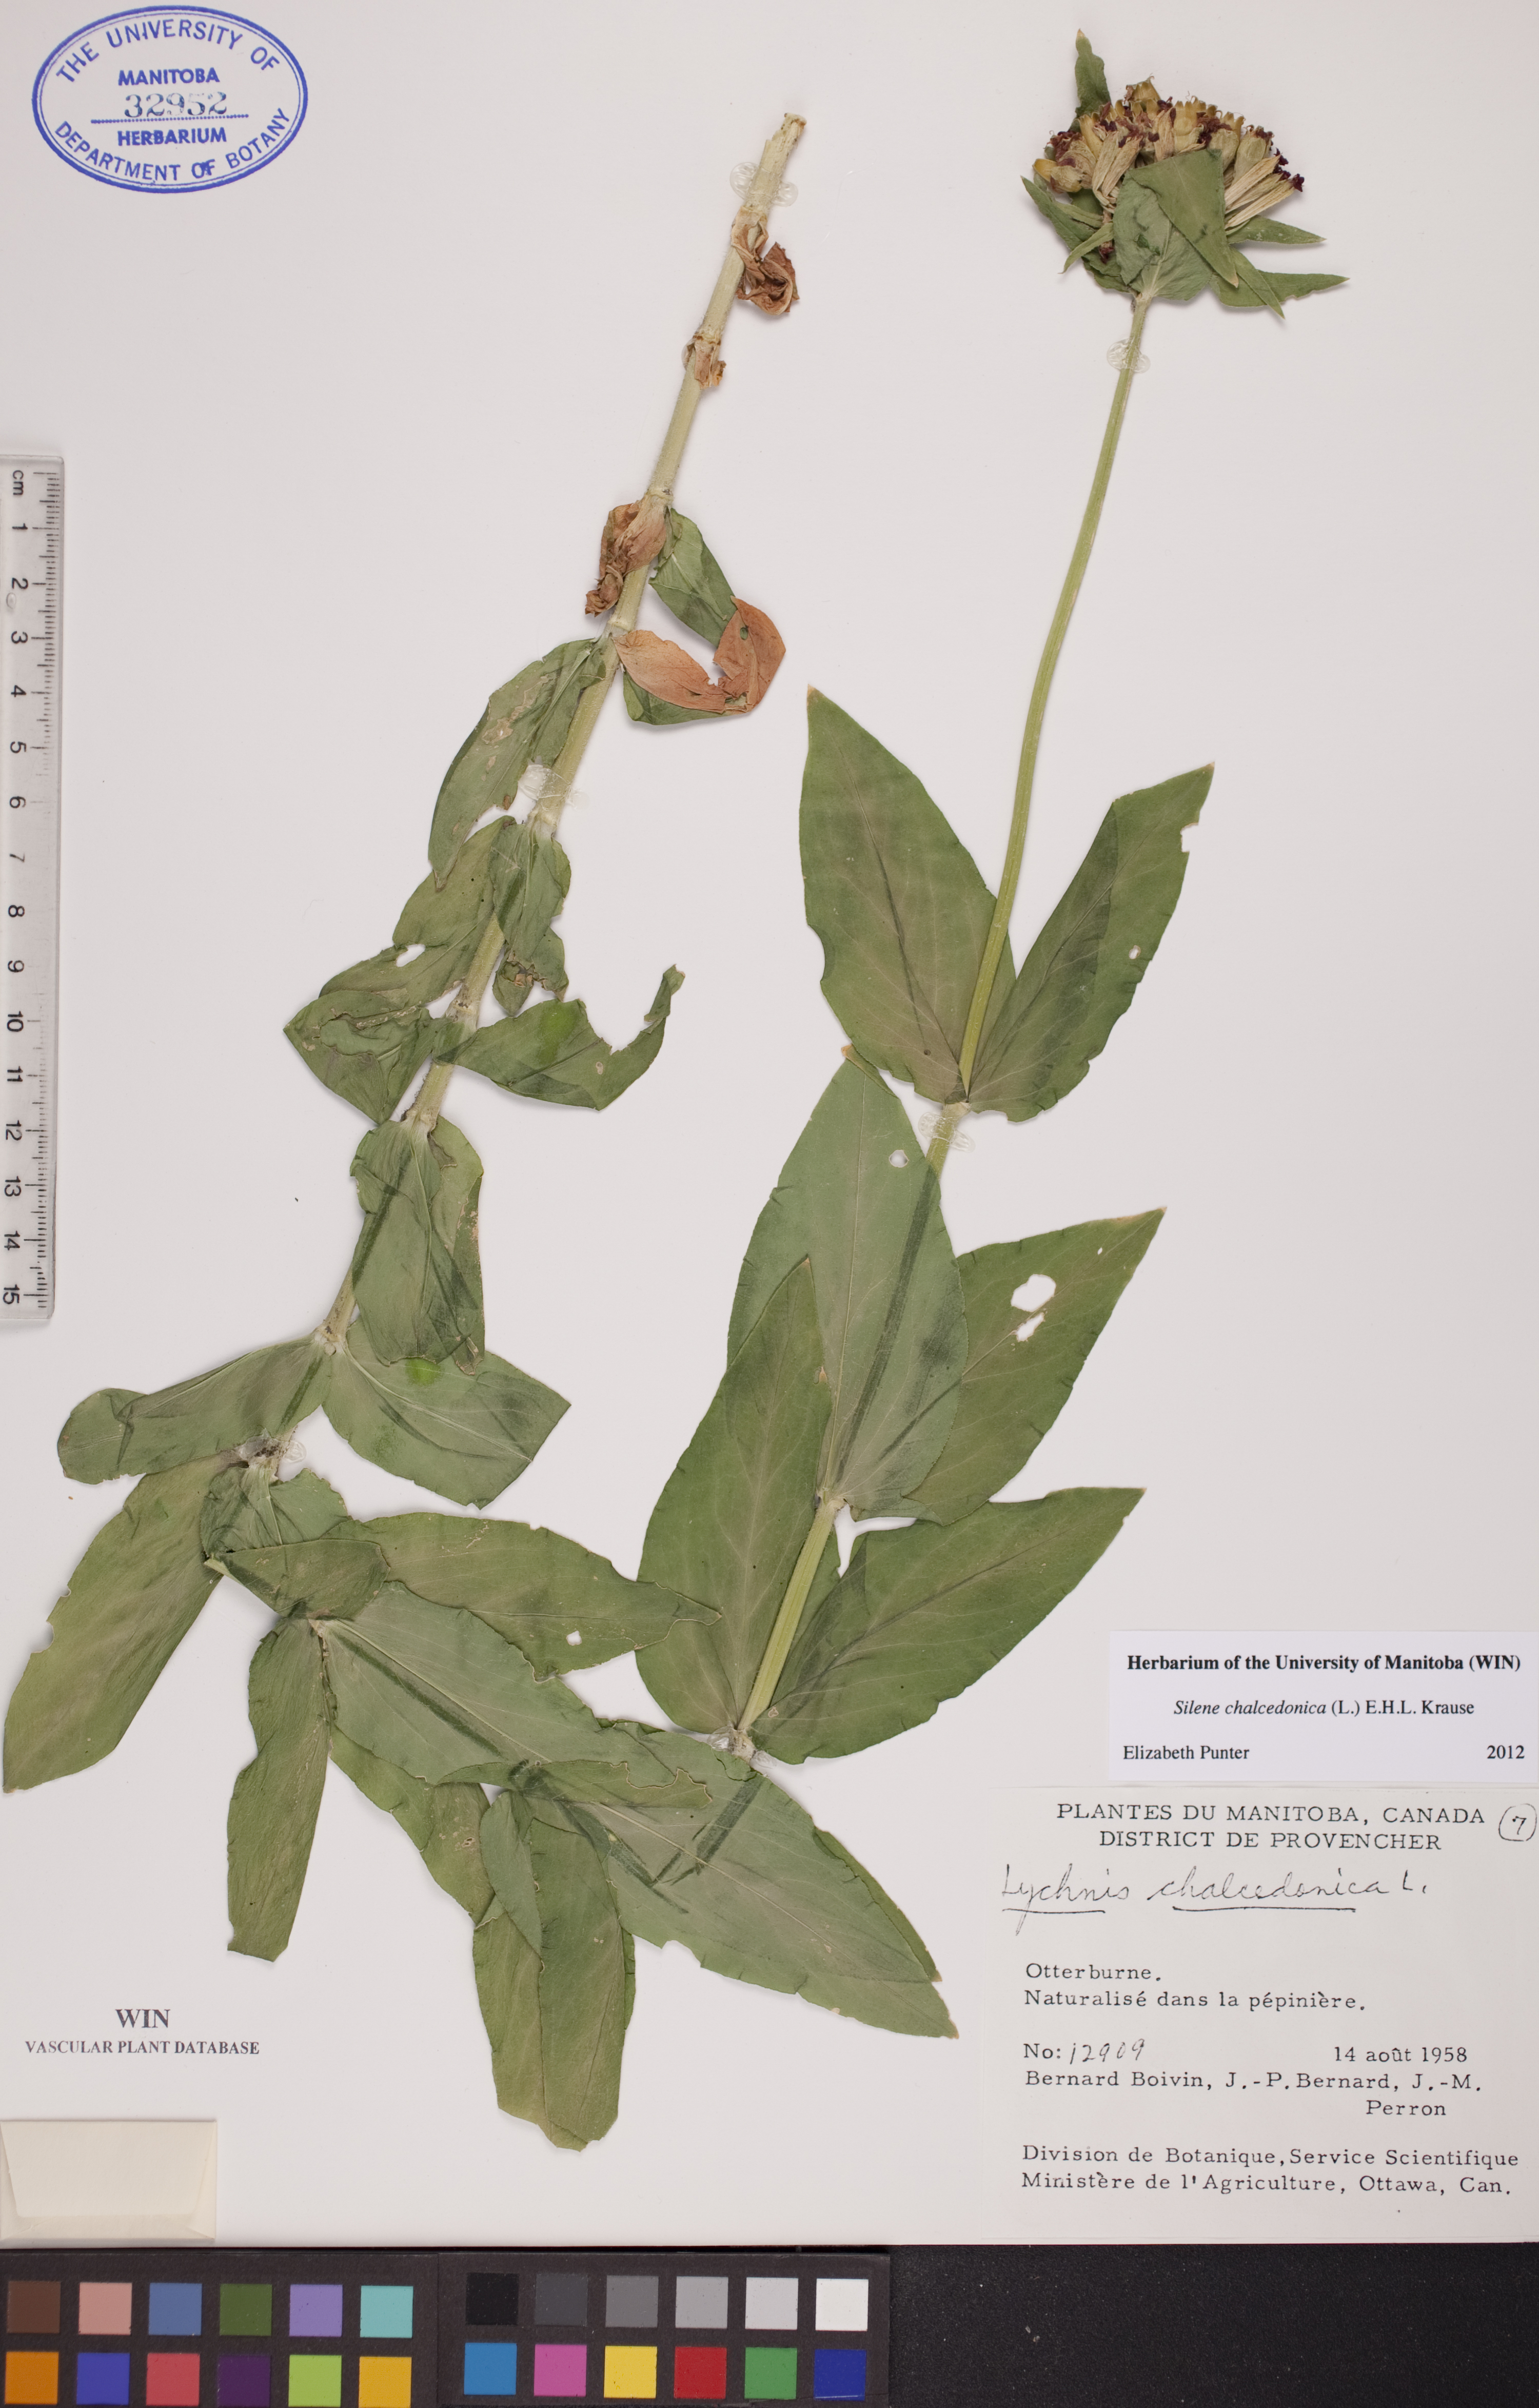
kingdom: Plantae
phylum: Tracheophyta
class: Magnoliopsida
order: Caryophyllales
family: Caryophyllaceae
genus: Silene
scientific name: Silene chalcedonica
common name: Maltese-cross
